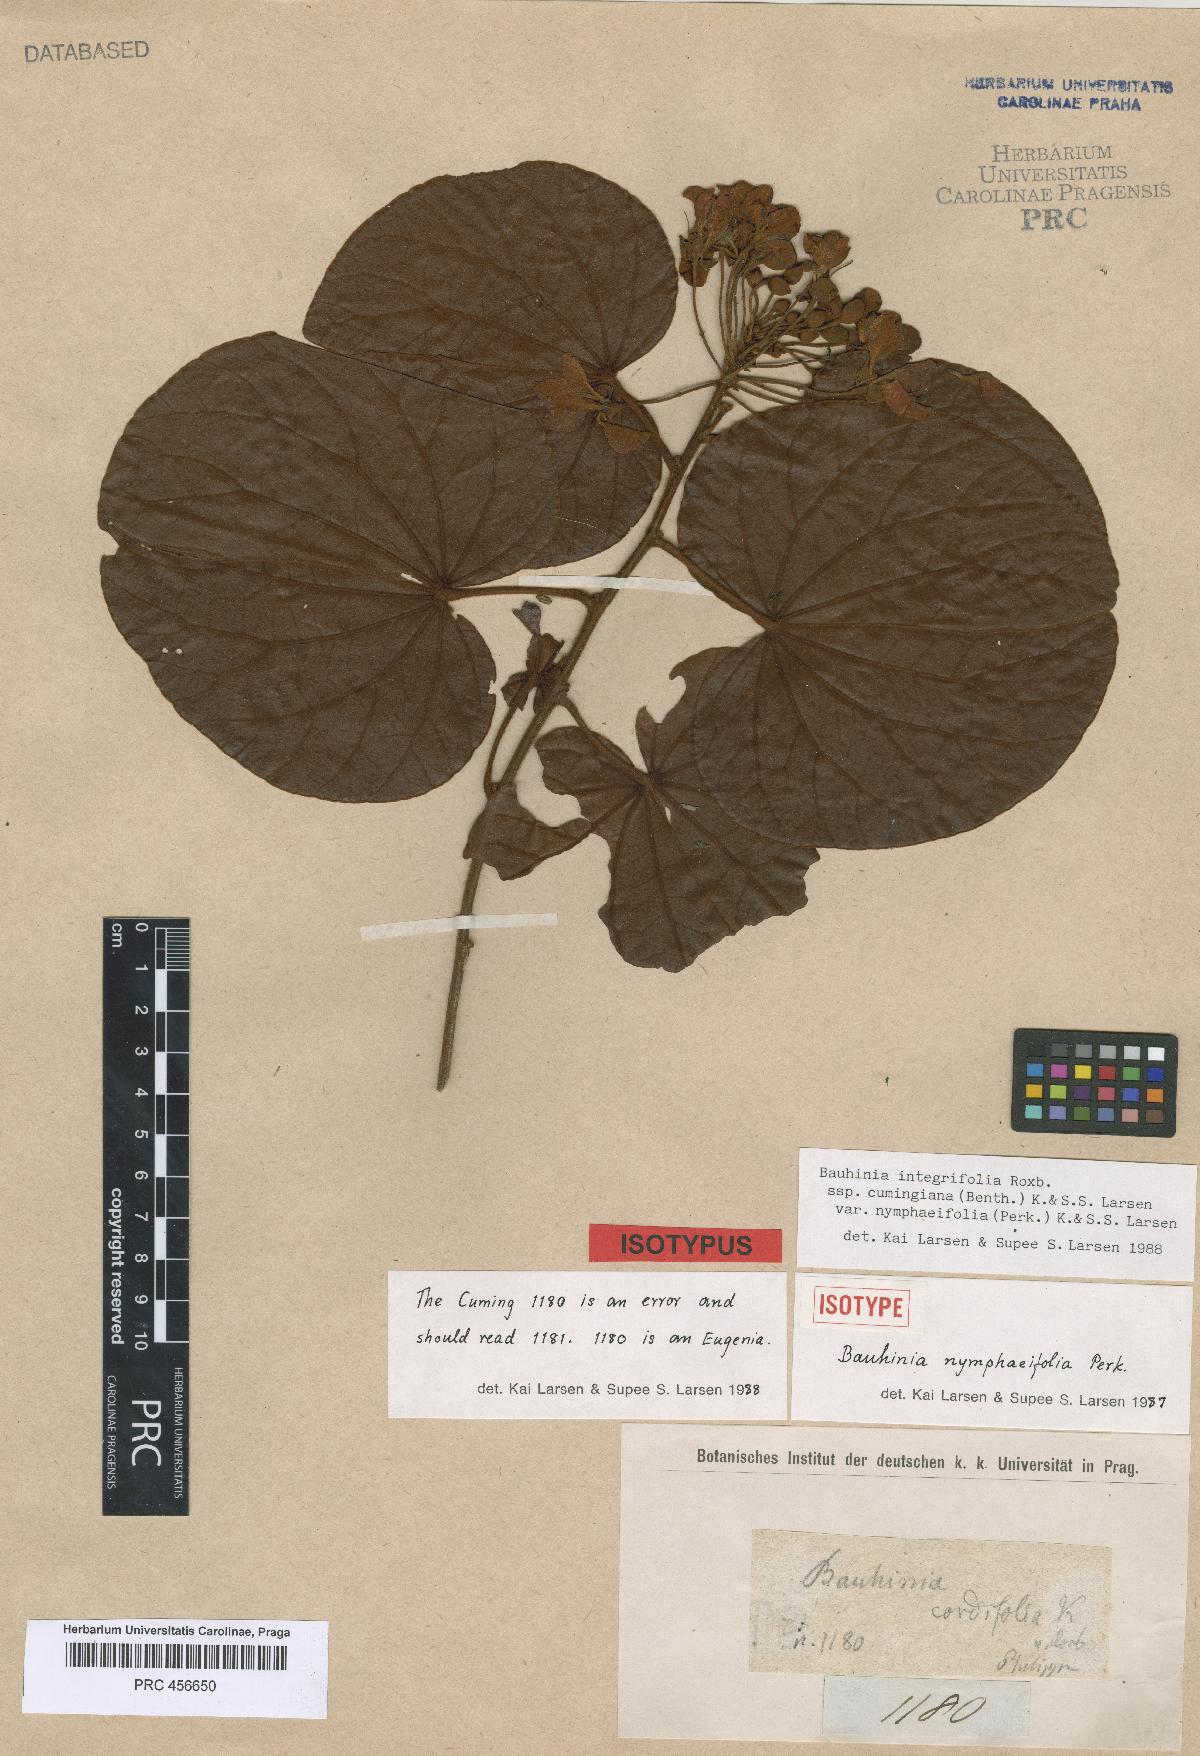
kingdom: Plantae
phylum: Tracheophyta
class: Magnoliopsida
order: Fabales
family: Fabaceae
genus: Phanera
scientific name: Phanera integrifolia
